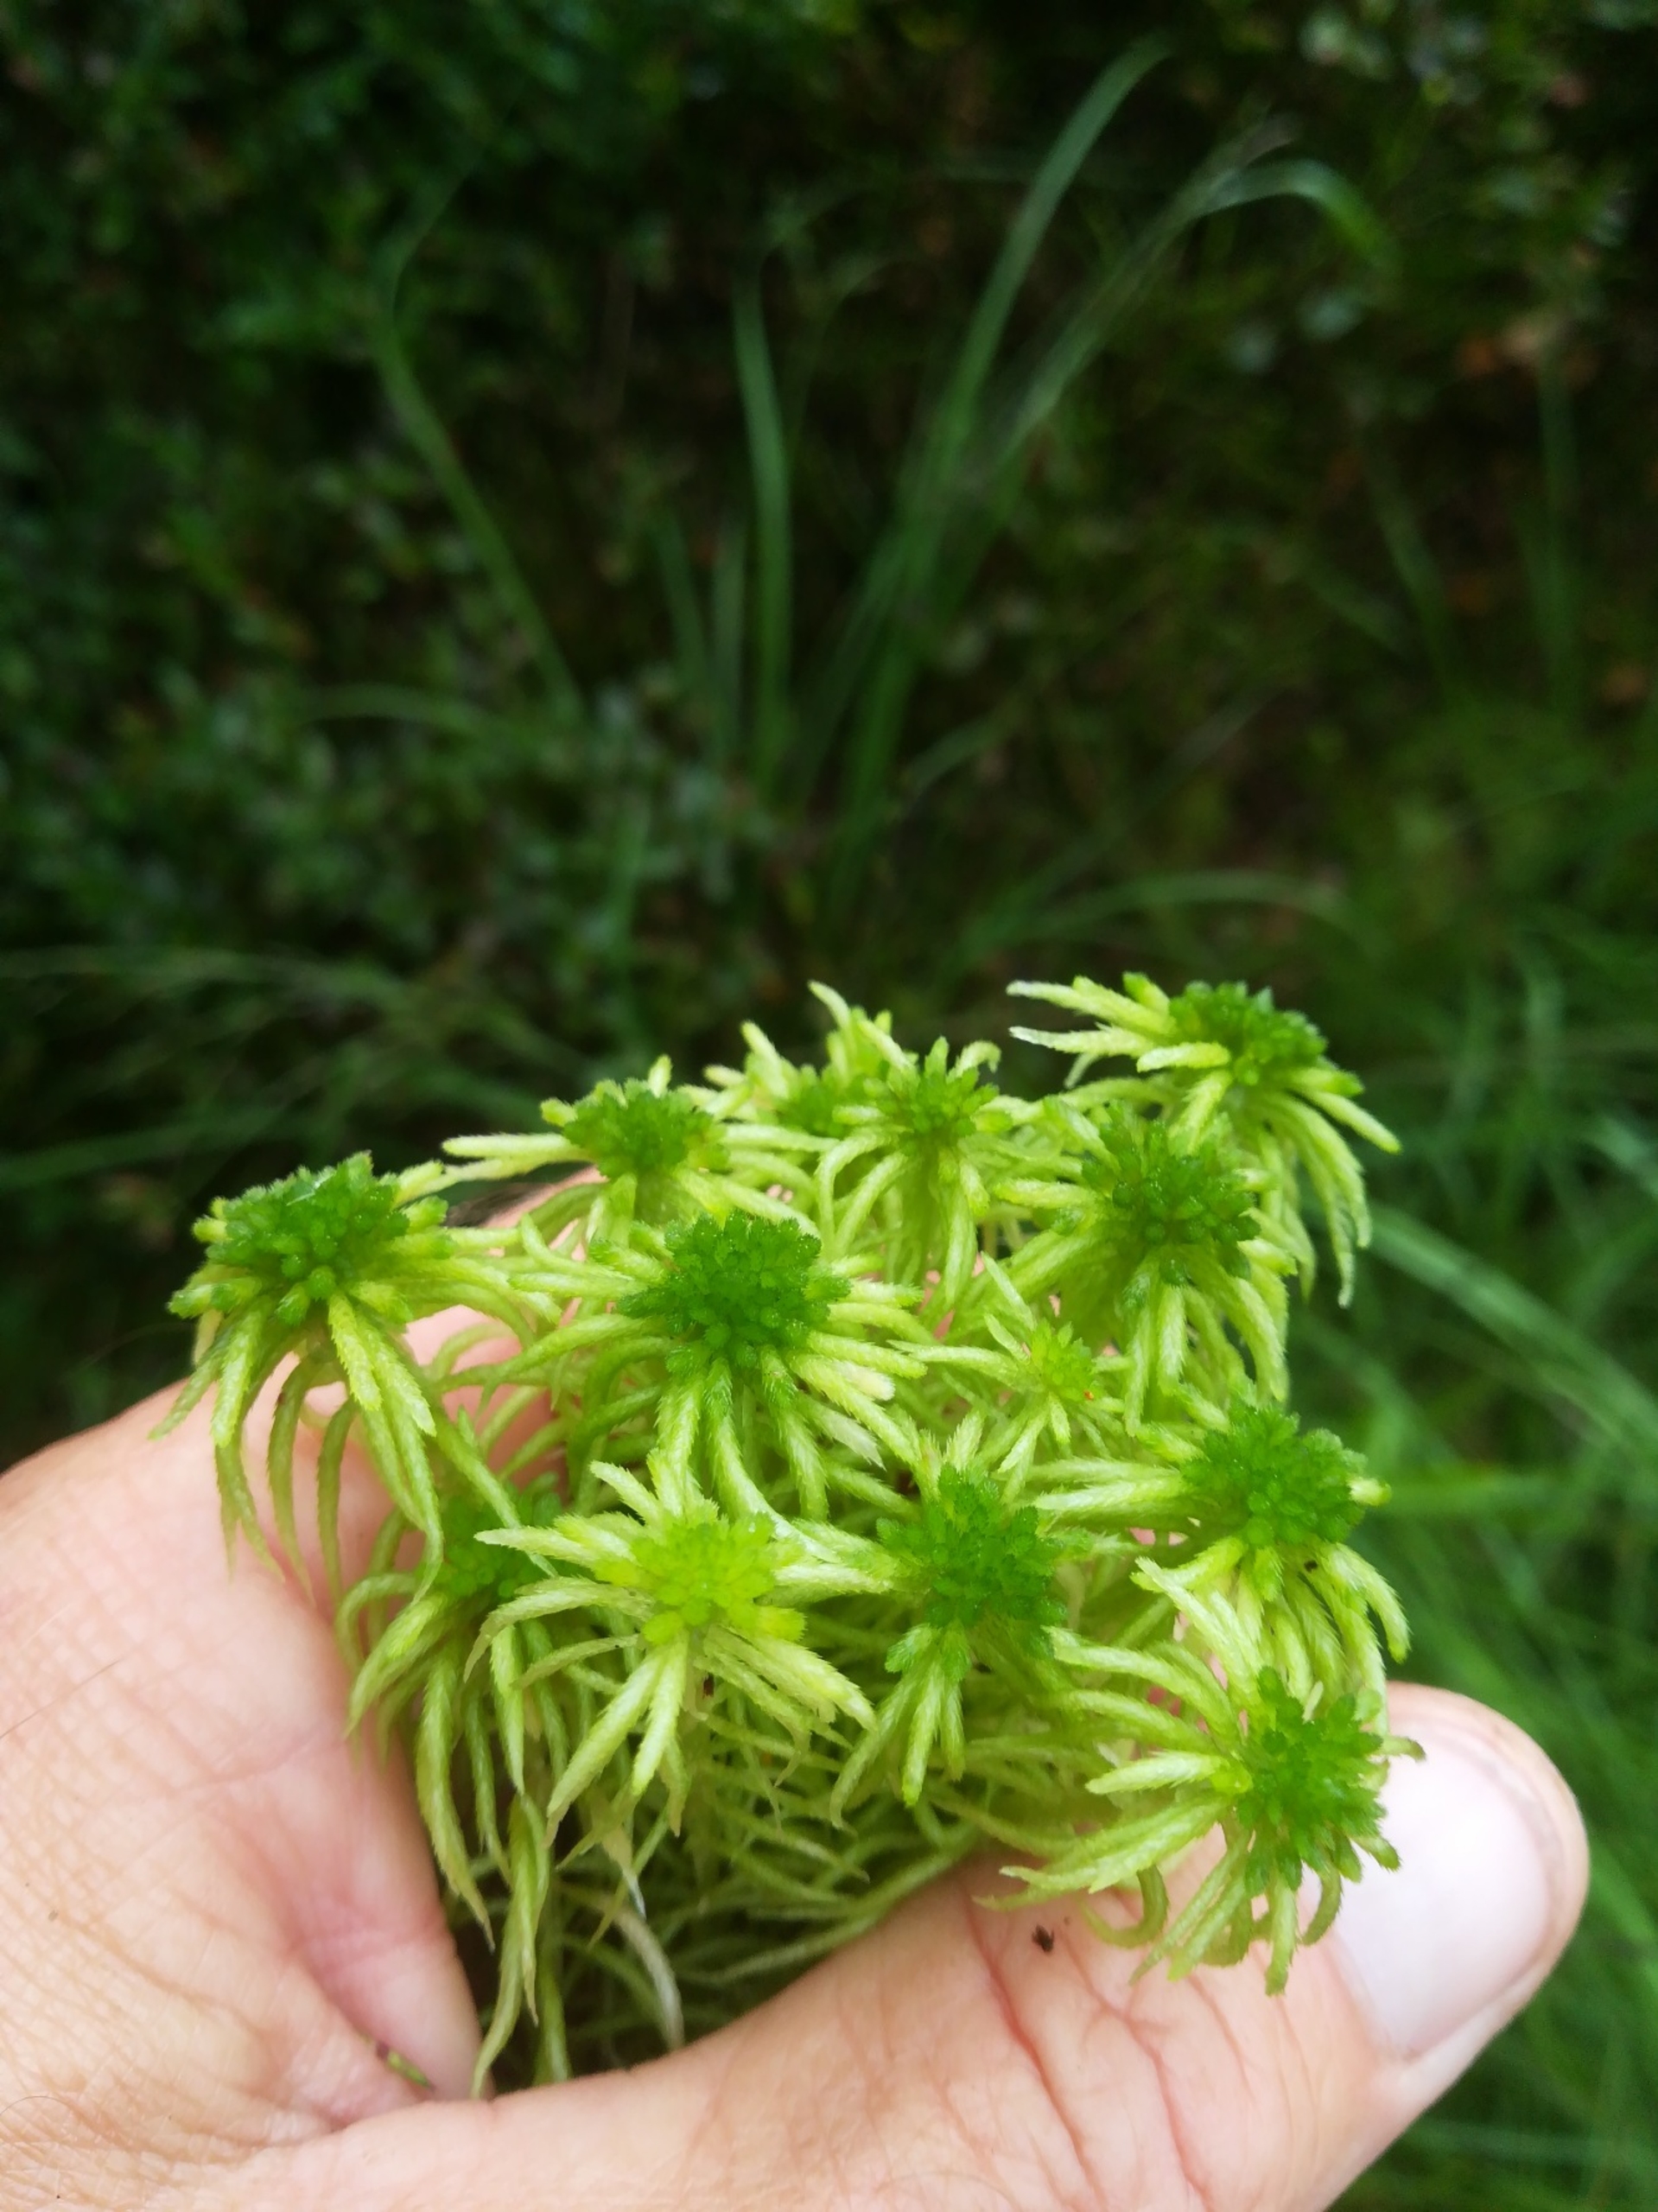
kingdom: Plantae
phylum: Bryophyta
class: Sphagnopsida
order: Sphagnales
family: Sphagnaceae
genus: Sphagnum
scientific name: Sphagnum riparium
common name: Kløftet tørvemos
